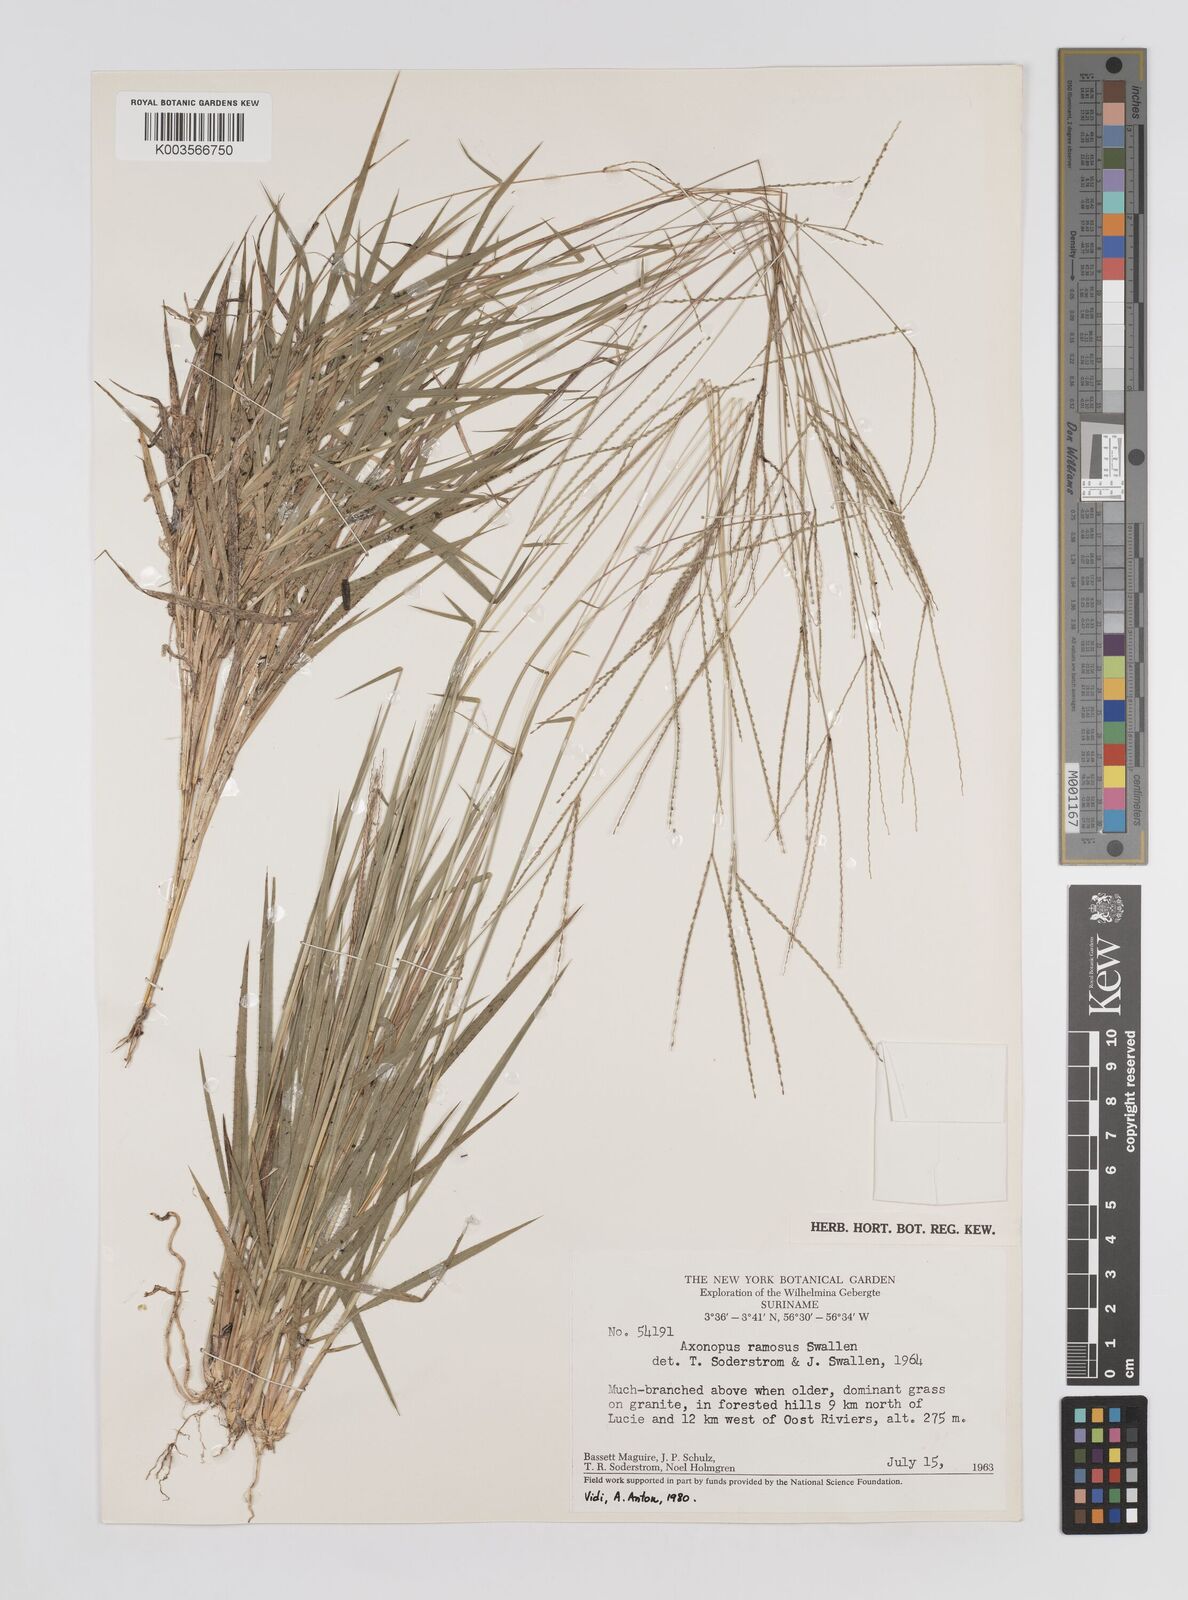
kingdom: Plantae
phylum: Tracheophyta
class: Liliopsida
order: Poales
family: Poaceae
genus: Axonopus
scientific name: Axonopus ramosus
